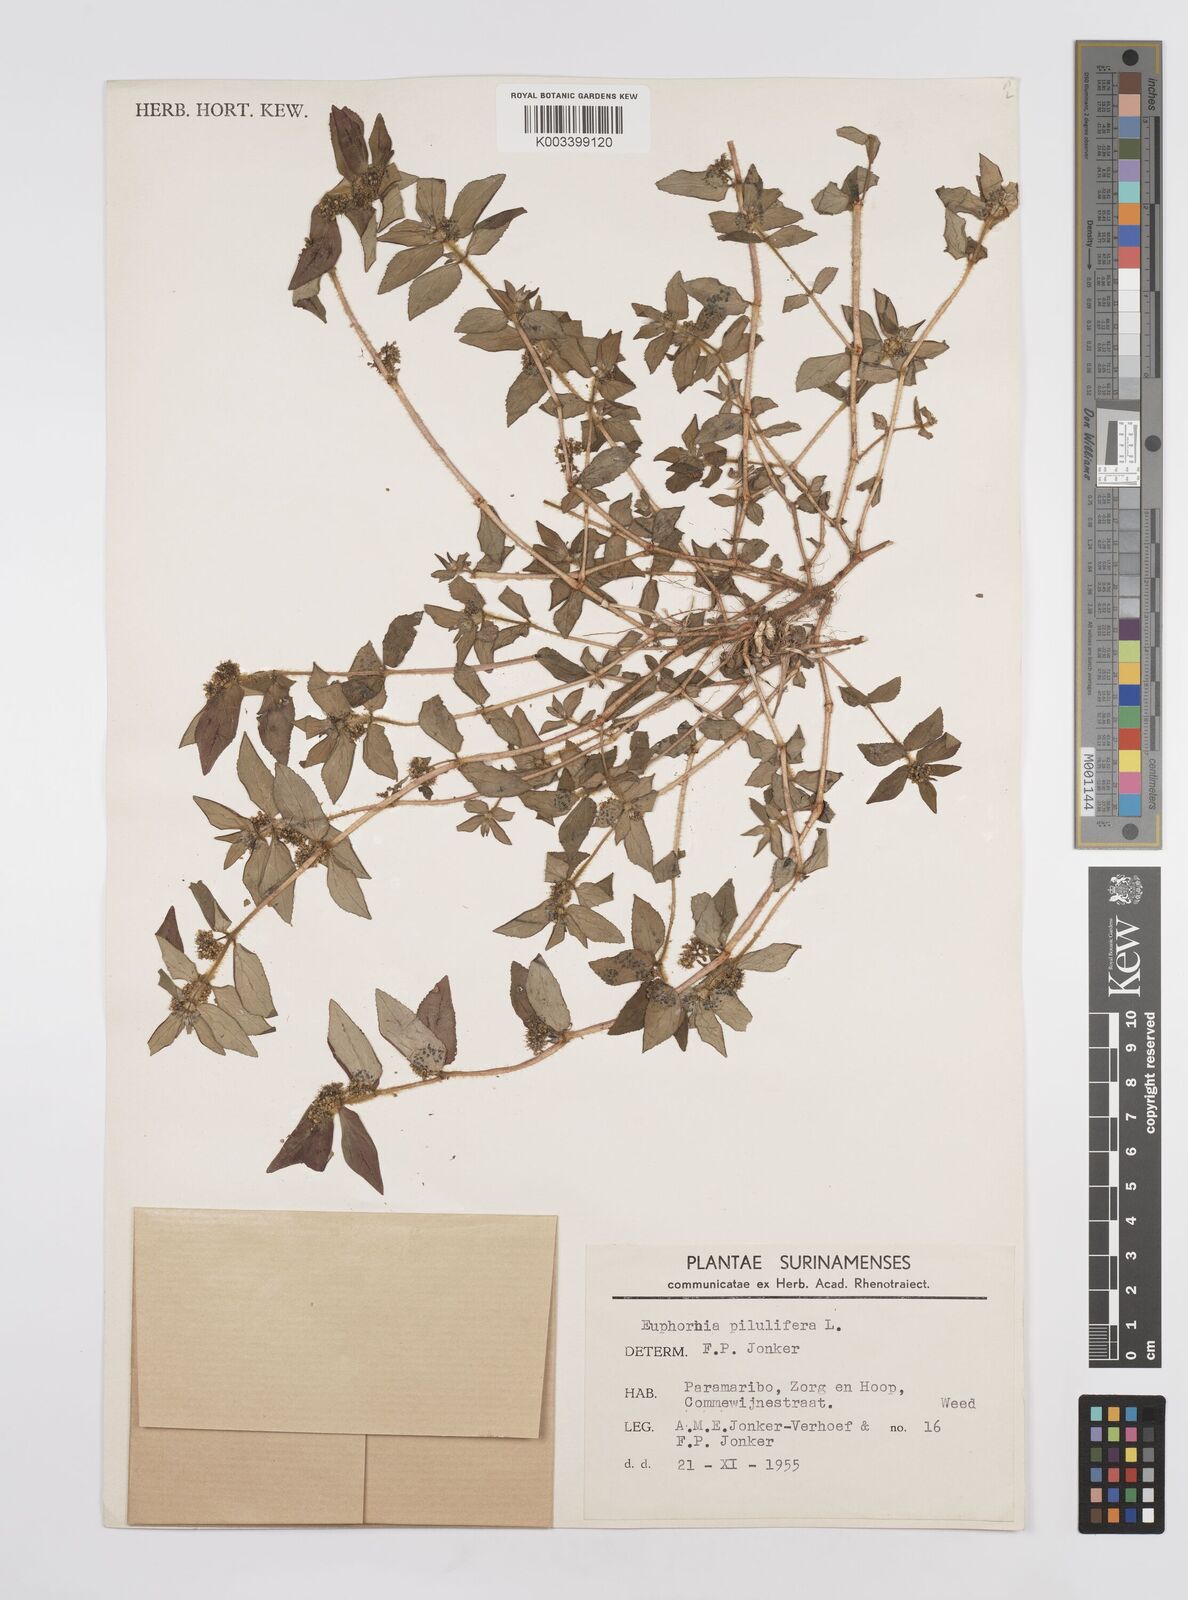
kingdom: Plantae
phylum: Tracheophyta
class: Magnoliopsida
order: Malpighiales
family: Euphorbiaceae
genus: Euphorbia
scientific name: Euphorbia hirta
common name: Pillpod sandmat
